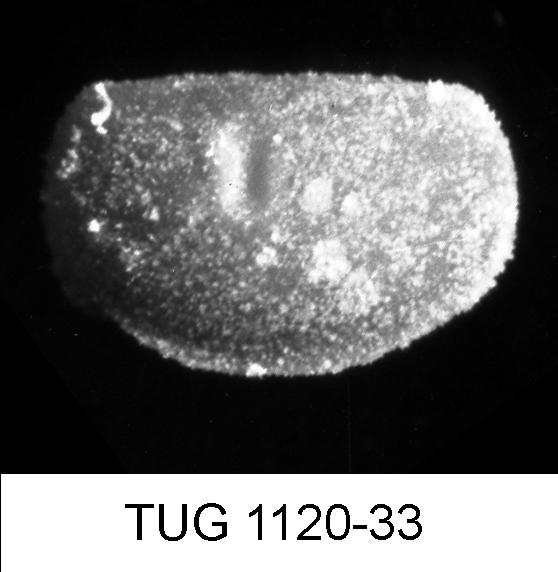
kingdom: Animalia
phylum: Arthropoda
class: Ostracoda
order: Palaeocopida
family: Tvaerenellidae
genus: Euprimites
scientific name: Euprimites
